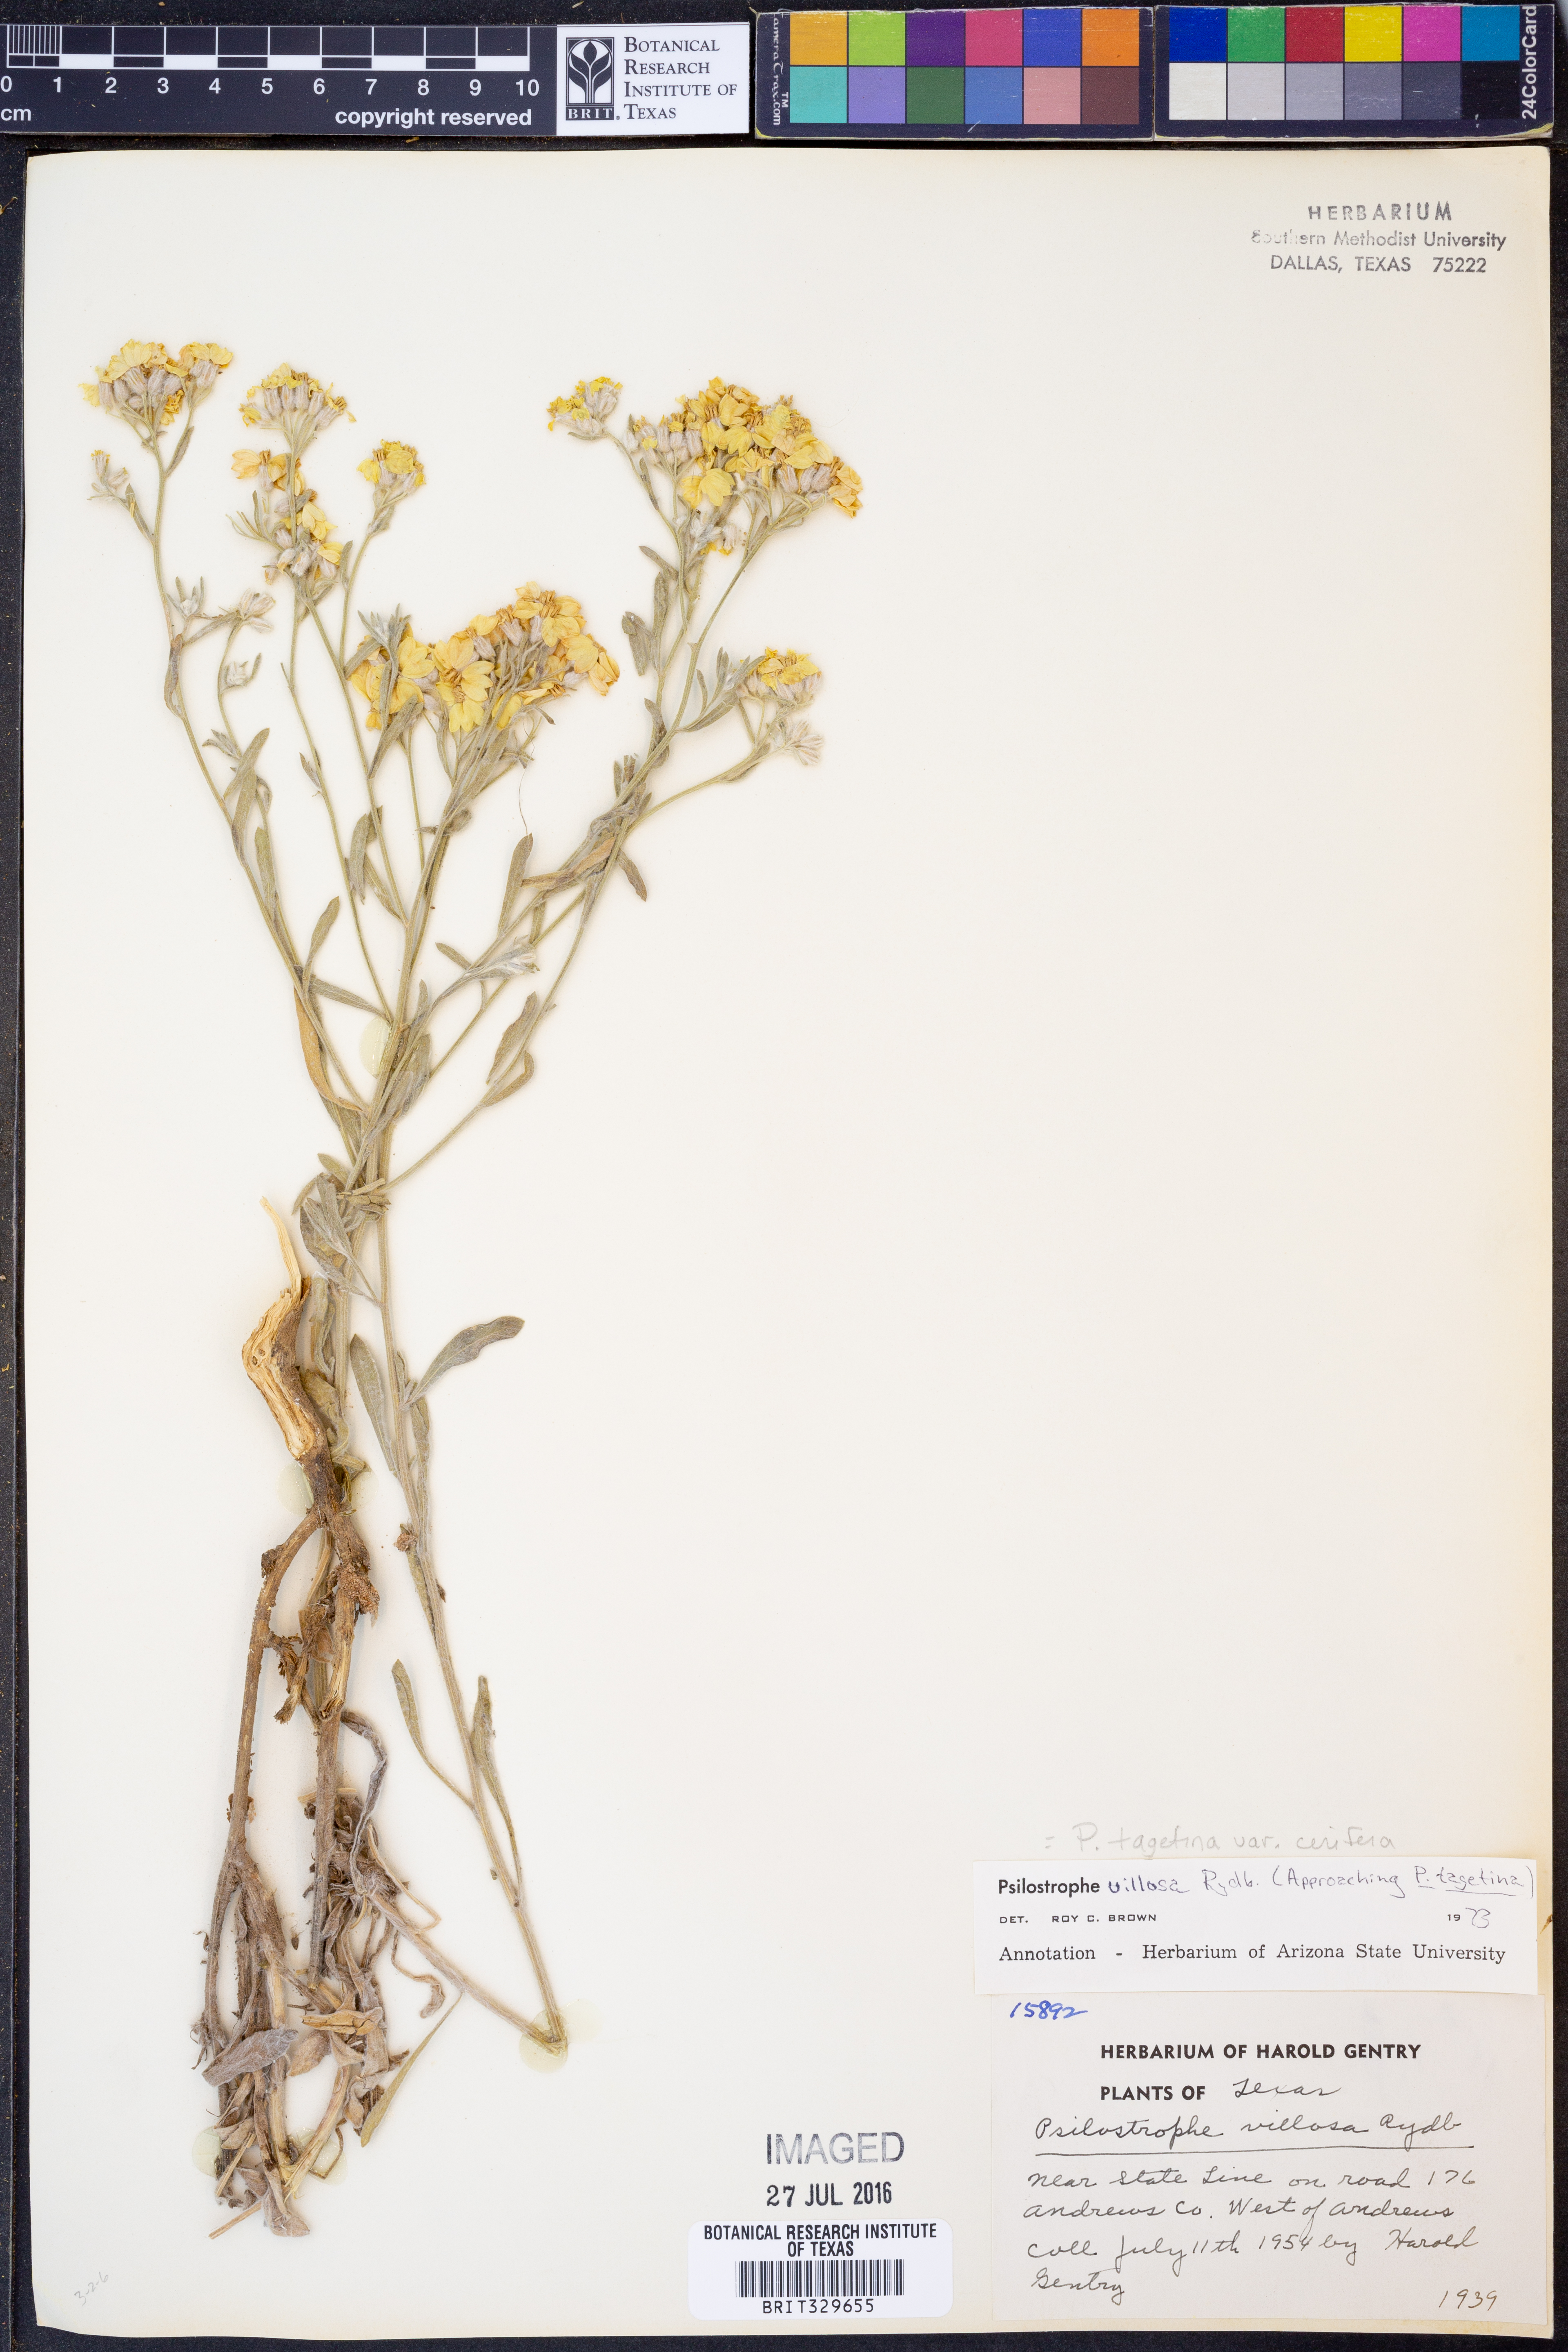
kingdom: Plantae
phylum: Tracheophyta
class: Magnoliopsida
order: Asterales
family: Asteraceae
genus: Psilostrophe
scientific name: Psilostrophe villosa
